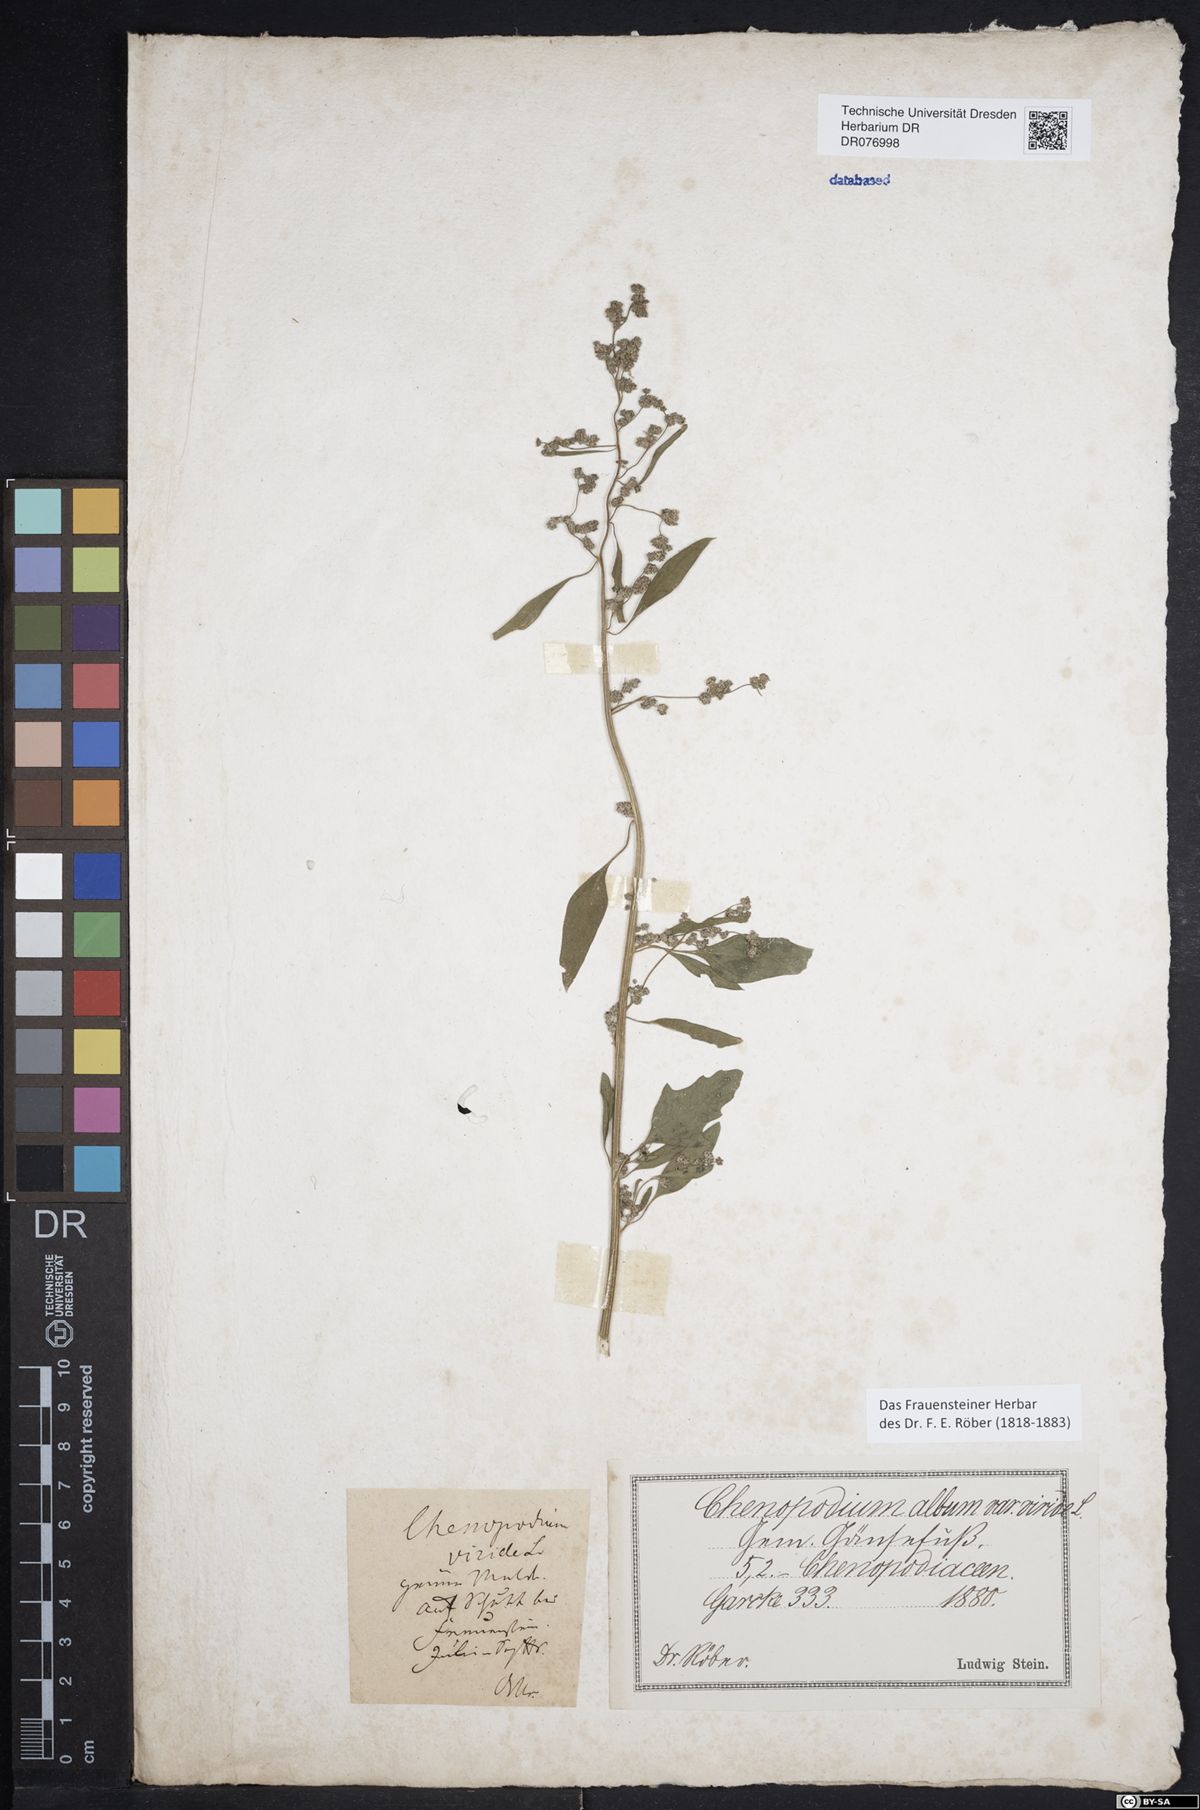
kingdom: Plantae
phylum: Tracheophyta
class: Magnoliopsida
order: Caryophyllales
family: Amaranthaceae
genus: Chenopodium
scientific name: Chenopodium album
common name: Fat-hen
